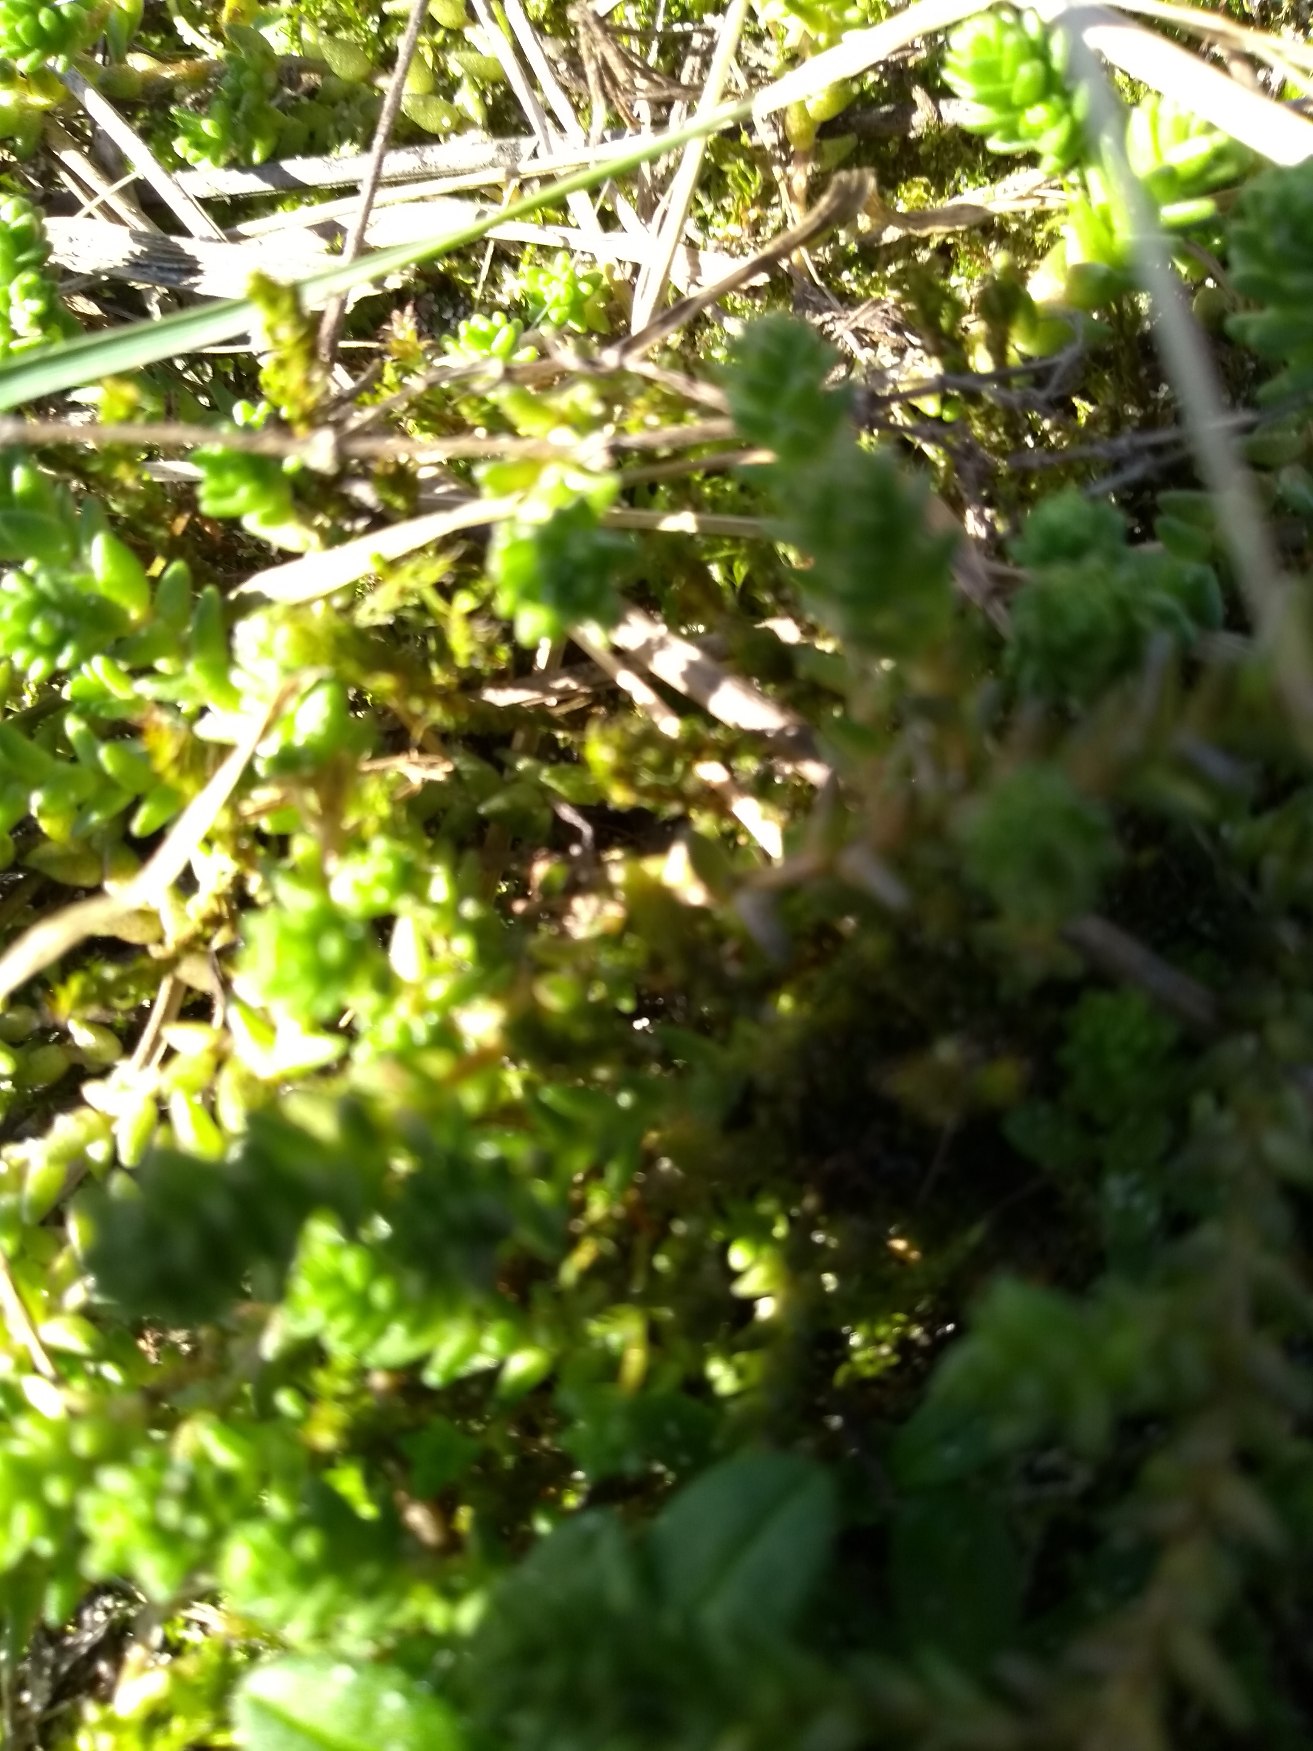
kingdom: Plantae
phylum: Tracheophyta
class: Magnoliopsida
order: Saxifragales
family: Crassulaceae
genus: Sedum
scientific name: Sedum acre
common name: Bidende stenurt
